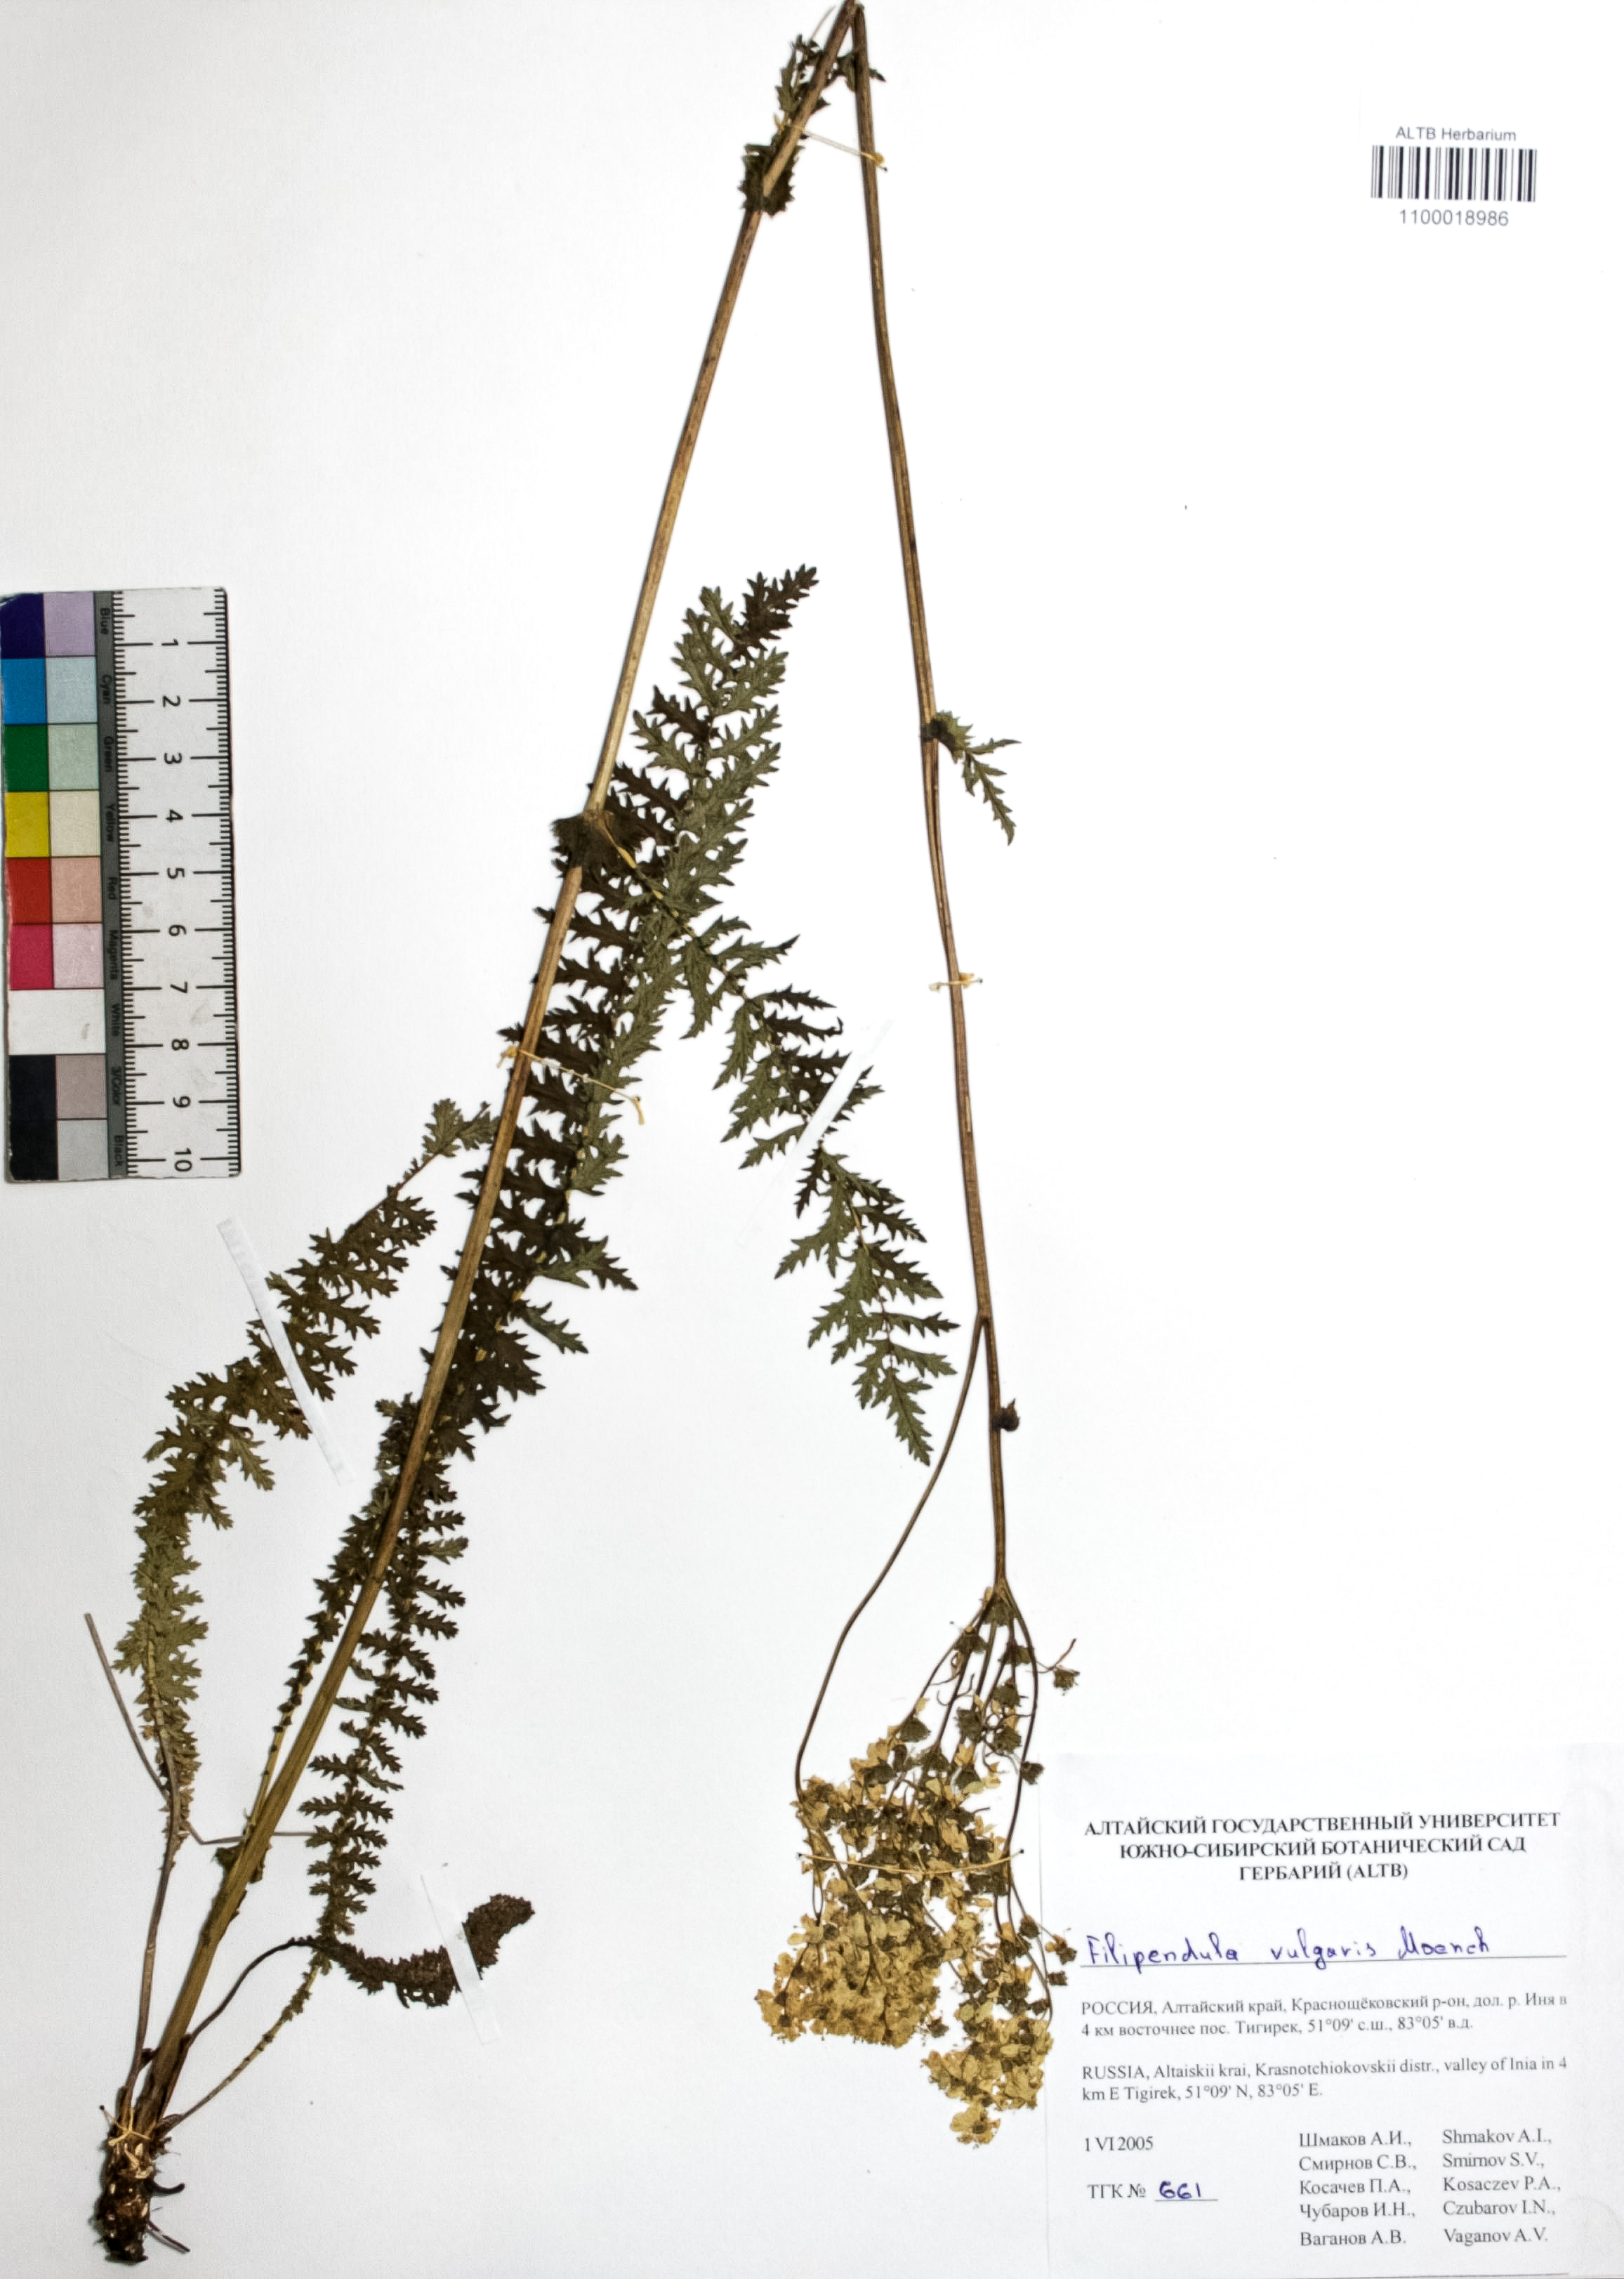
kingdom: Plantae
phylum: Tracheophyta
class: Magnoliopsida
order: Rosales
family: Rosaceae
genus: Filipendula
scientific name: Filipendula vulgaris
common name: Dropwort
